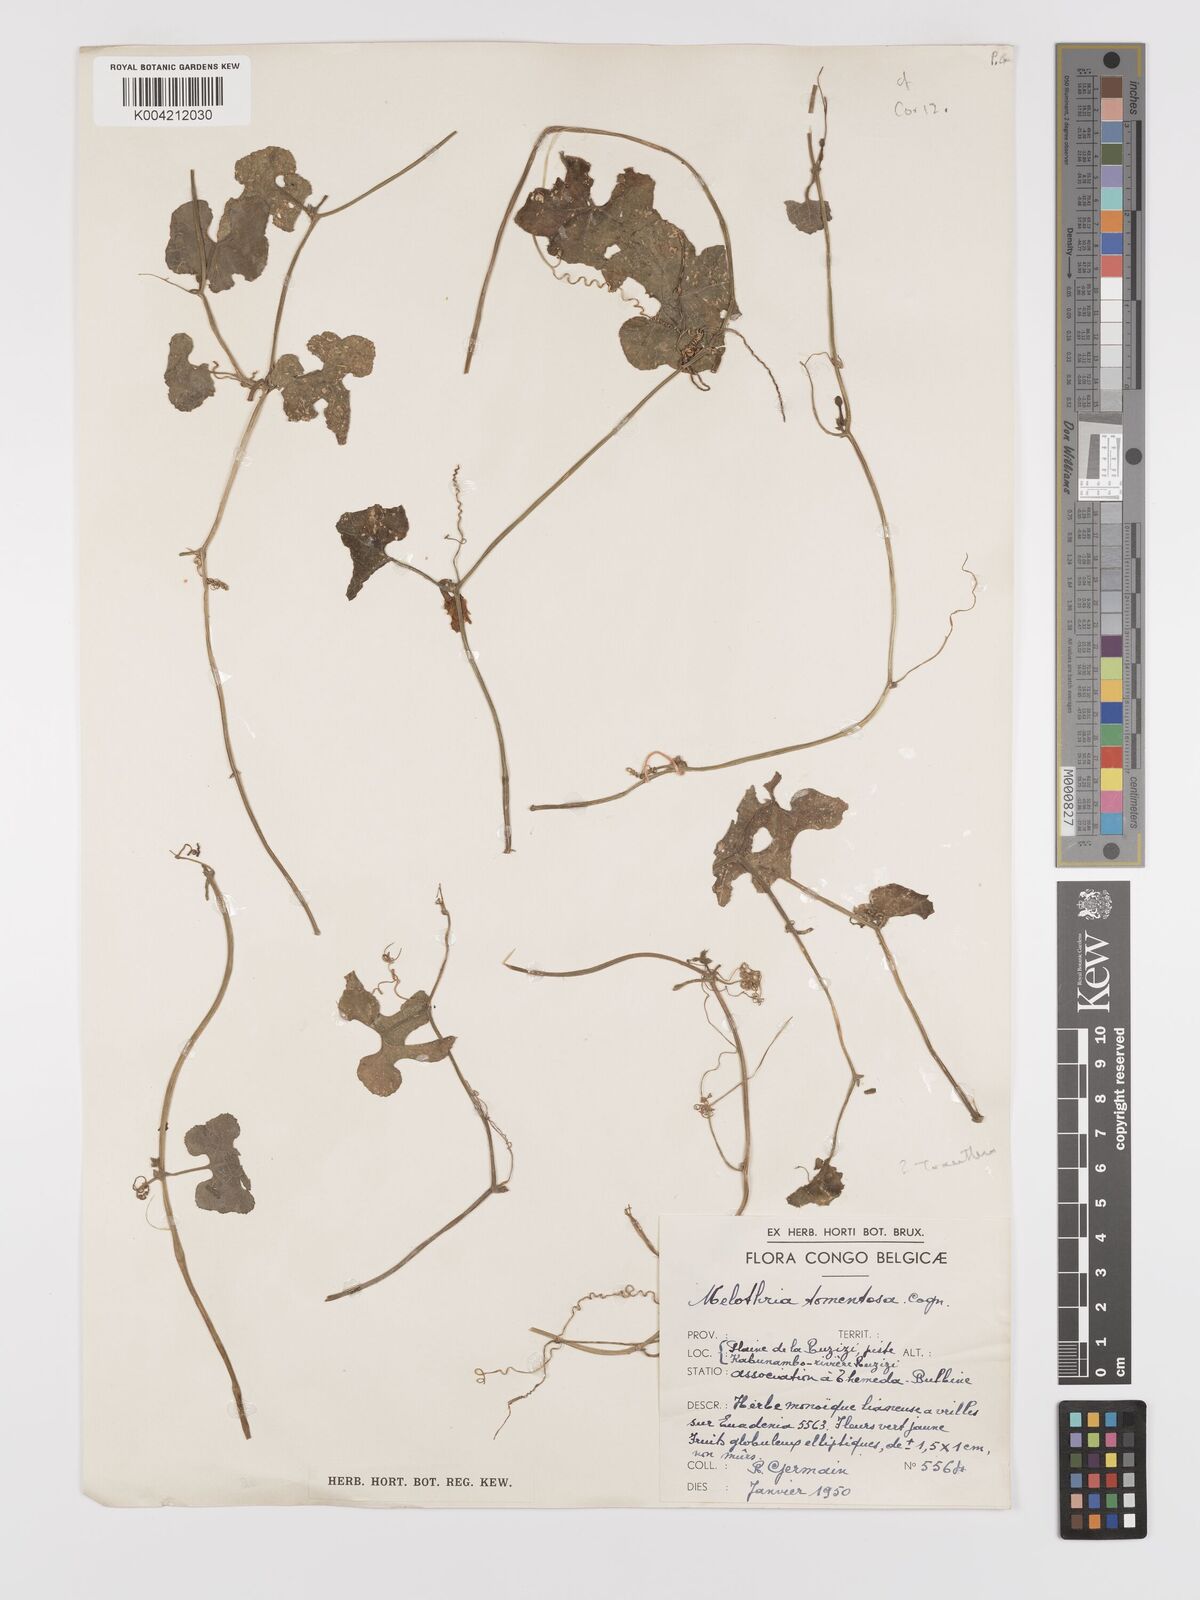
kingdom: Plantae
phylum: Tracheophyta
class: Magnoliopsida
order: Cucurbitales
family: Cucurbitaceae
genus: Kedrostis
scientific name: Kedrostis leloja
